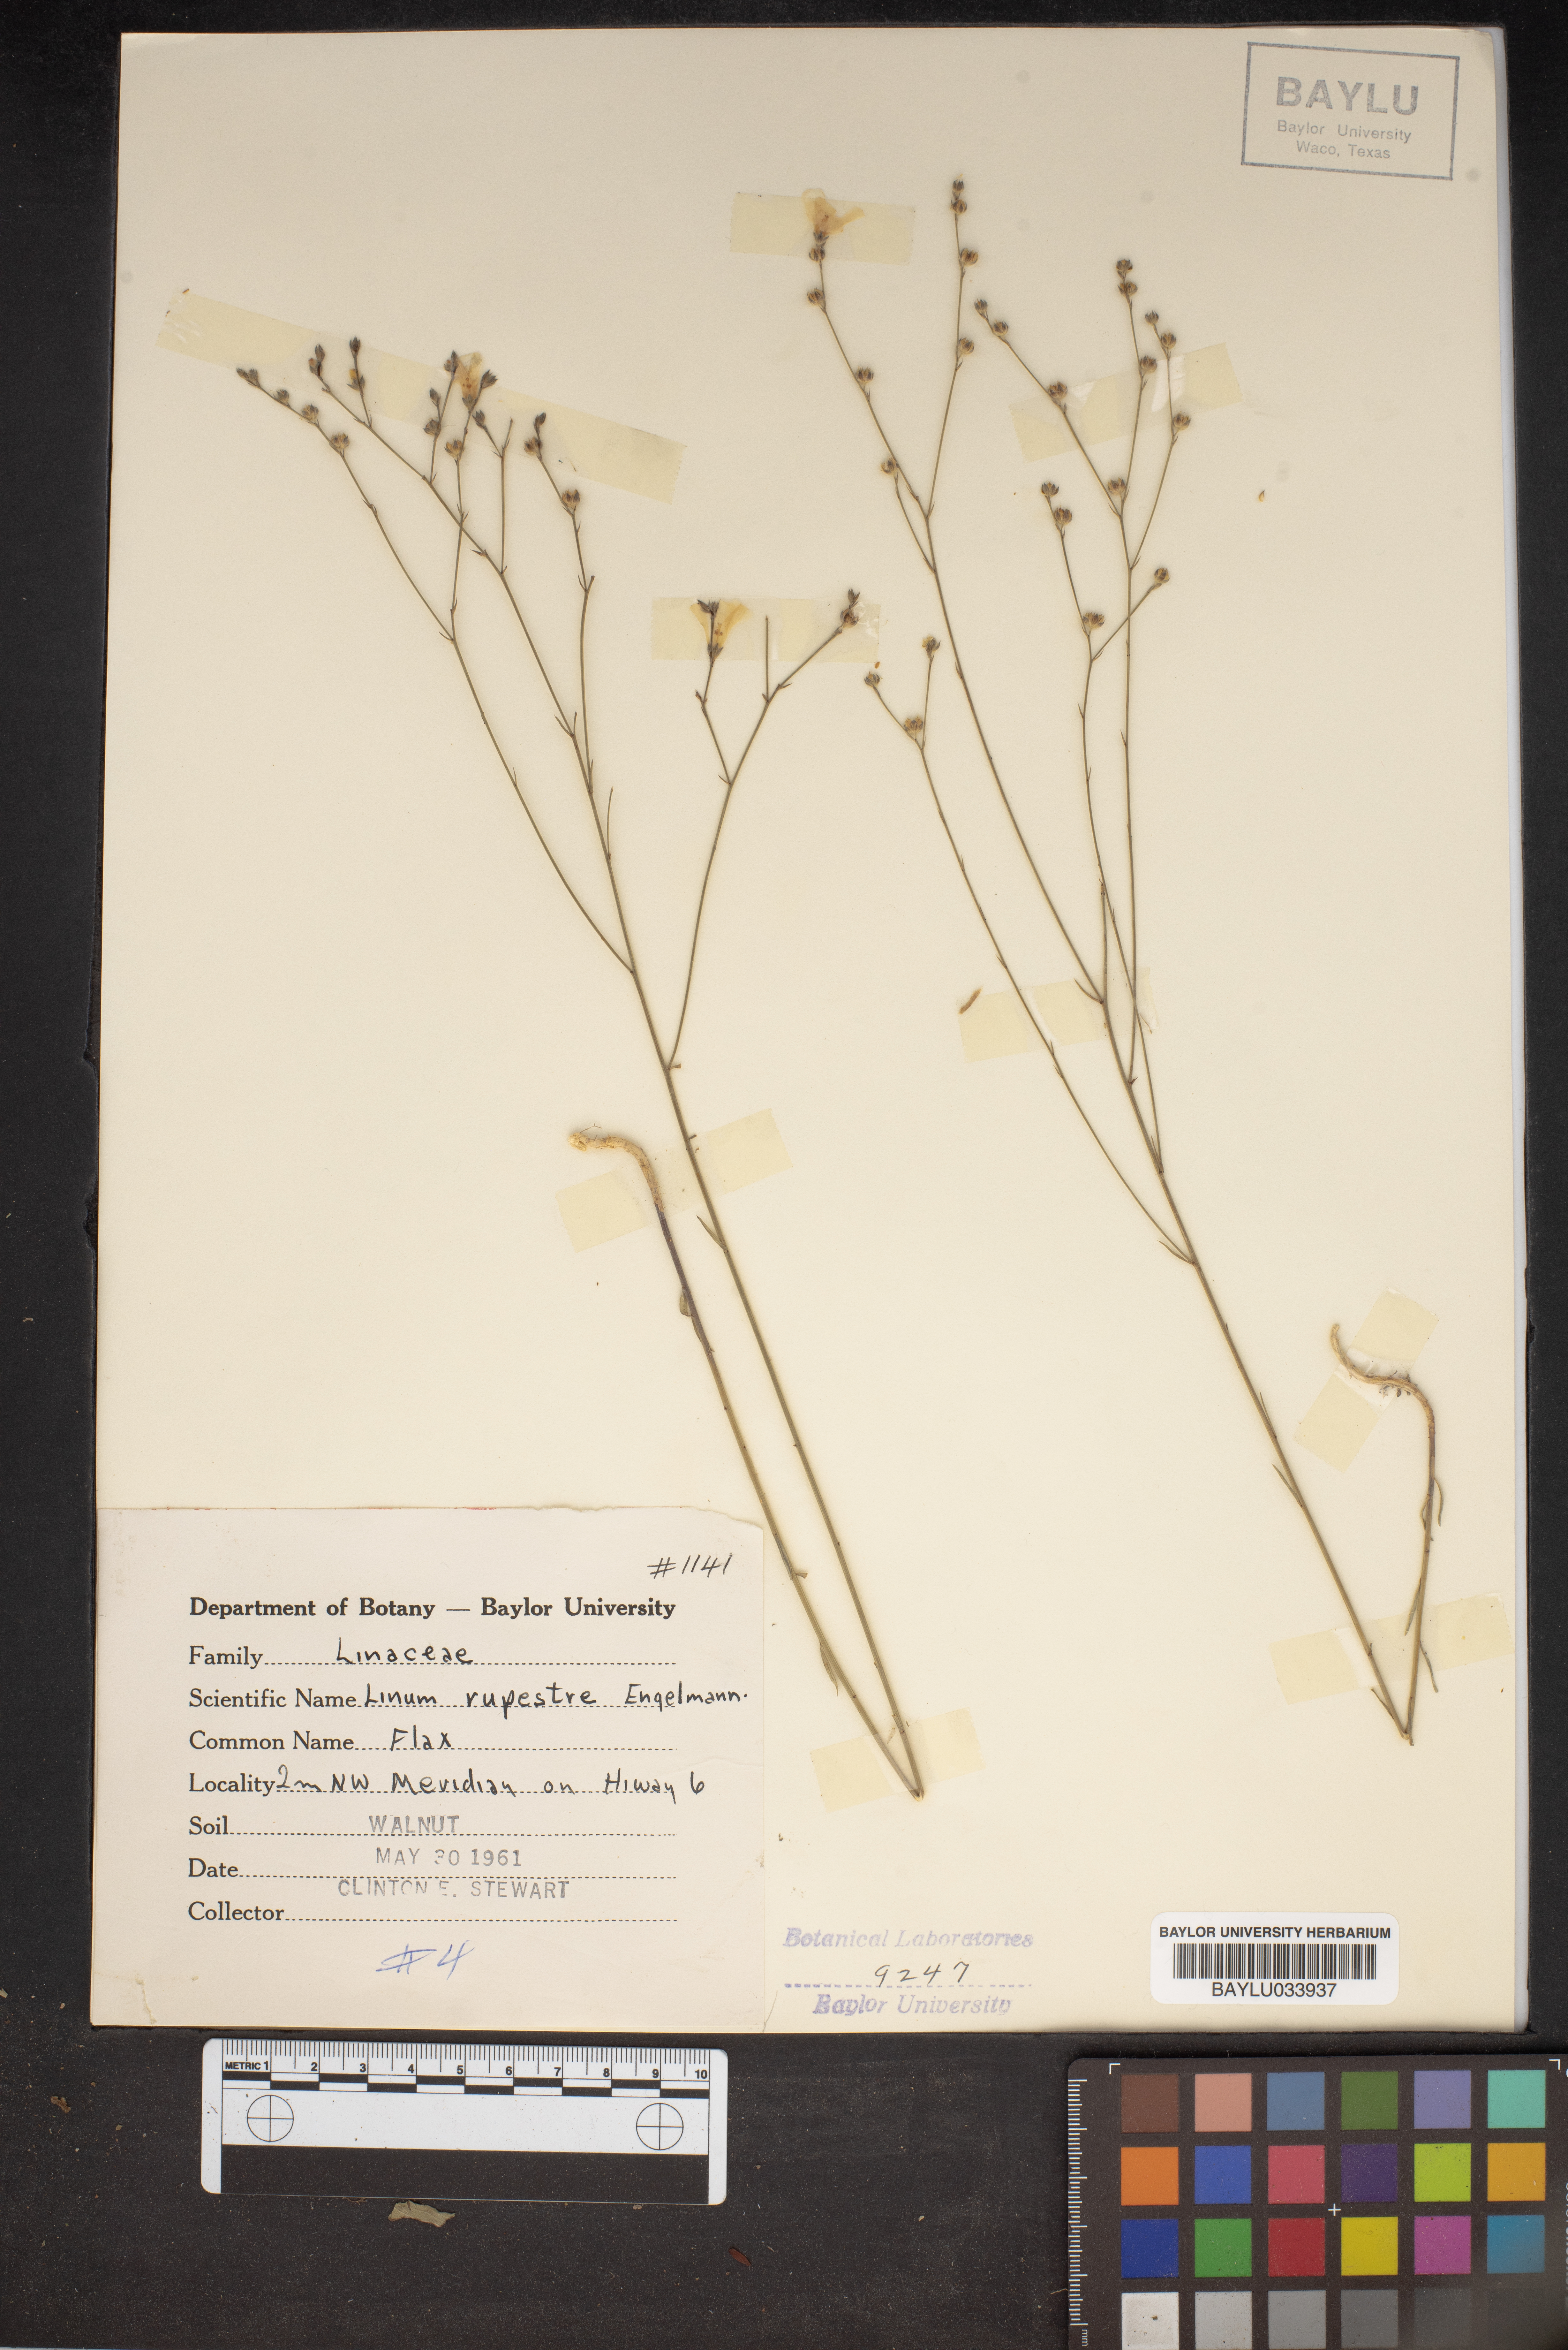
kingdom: Plantae
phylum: Tracheophyta
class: Magnoliopsida
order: Malpighiales
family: Linaceae
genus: Linum
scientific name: Linum rupestre
